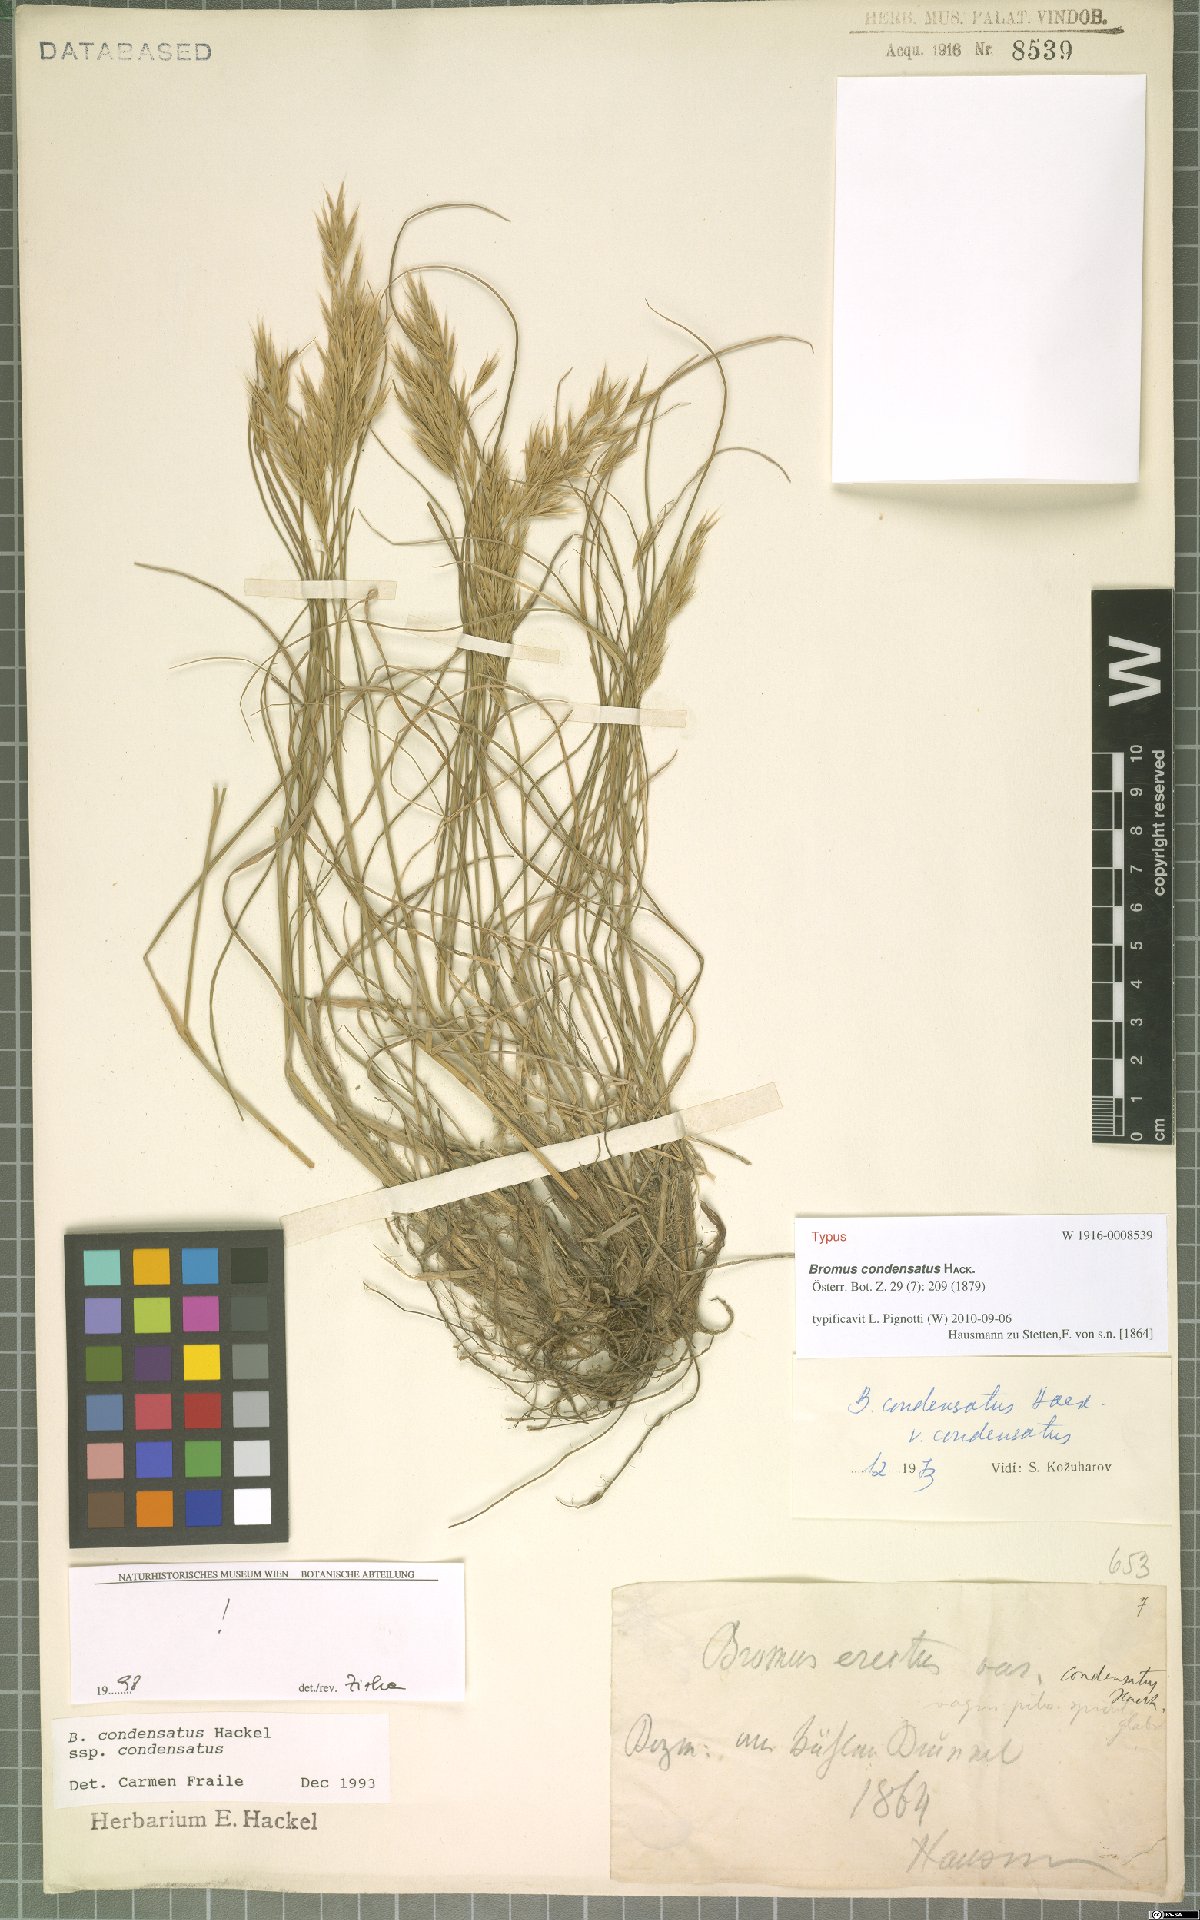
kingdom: Plantae
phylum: Tracheophyta
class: Liliopsida
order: Poales
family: Poaceae
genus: Bromus
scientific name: Bromus condensatus
